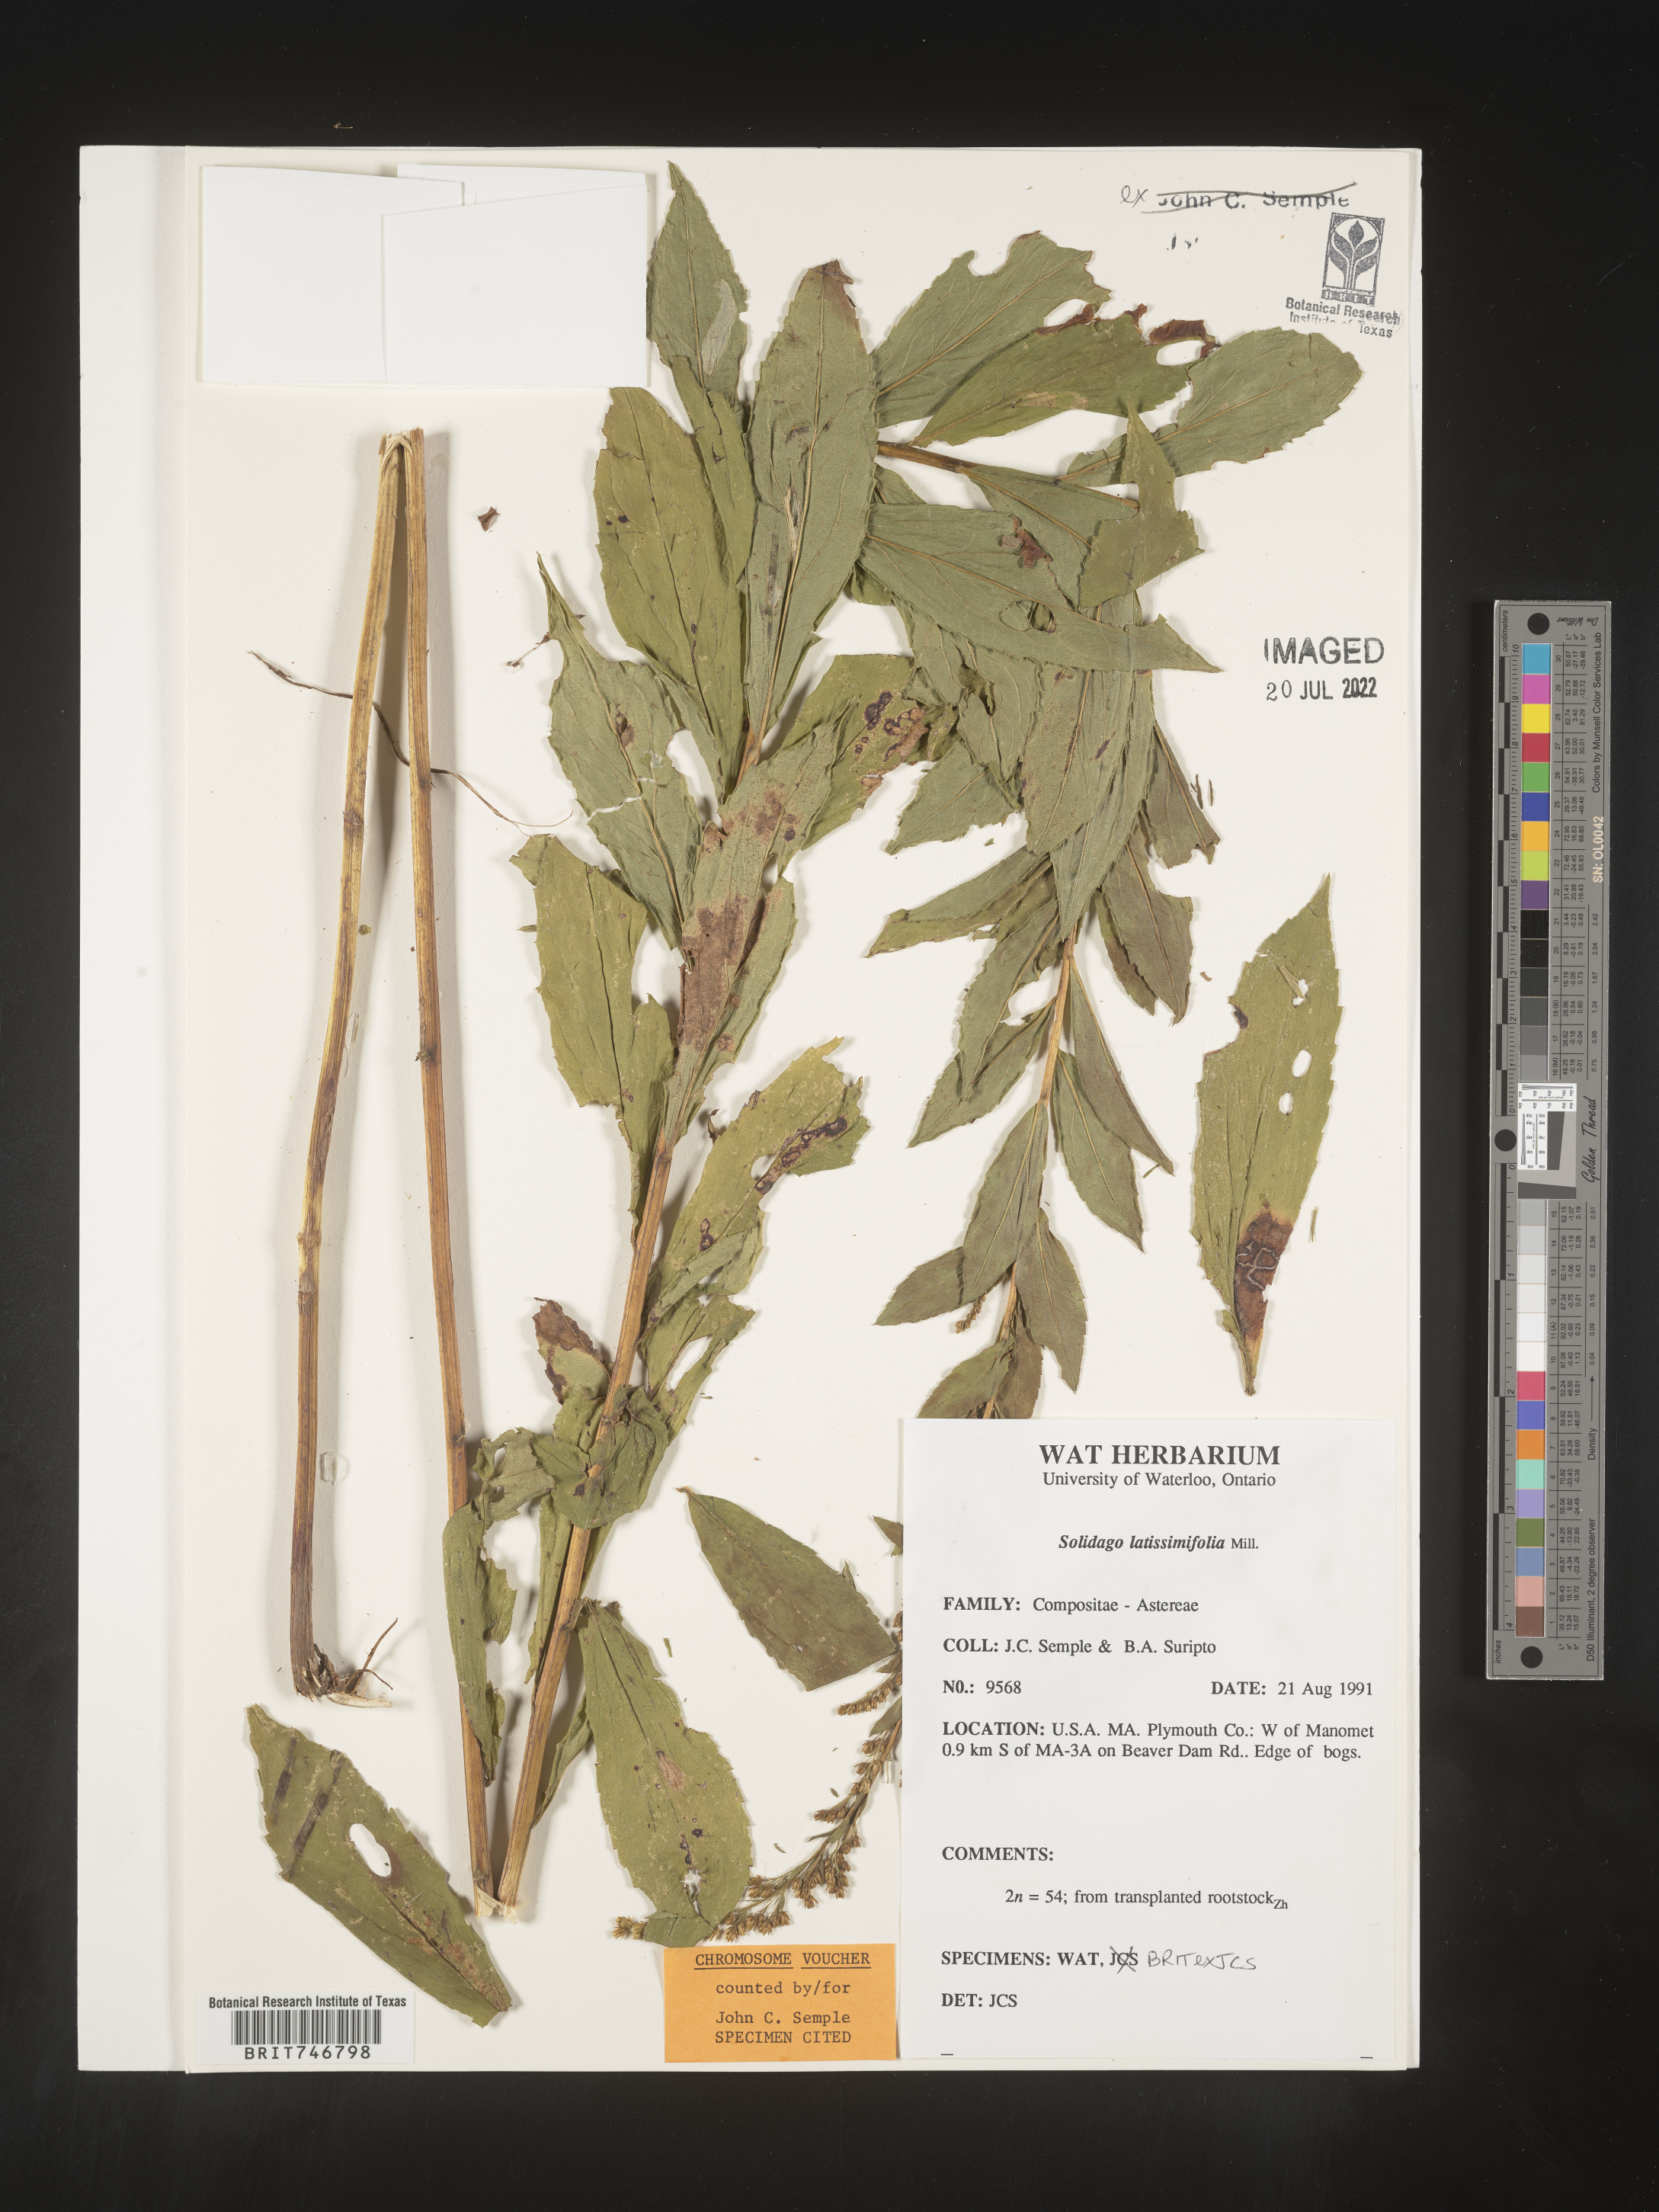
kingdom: Plantae
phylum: Tracheophyta
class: Magnoliopsida
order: Asterales
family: Asteraceae
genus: Solidago
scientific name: Solidago latissimifolia
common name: Elliott's goldenrod
